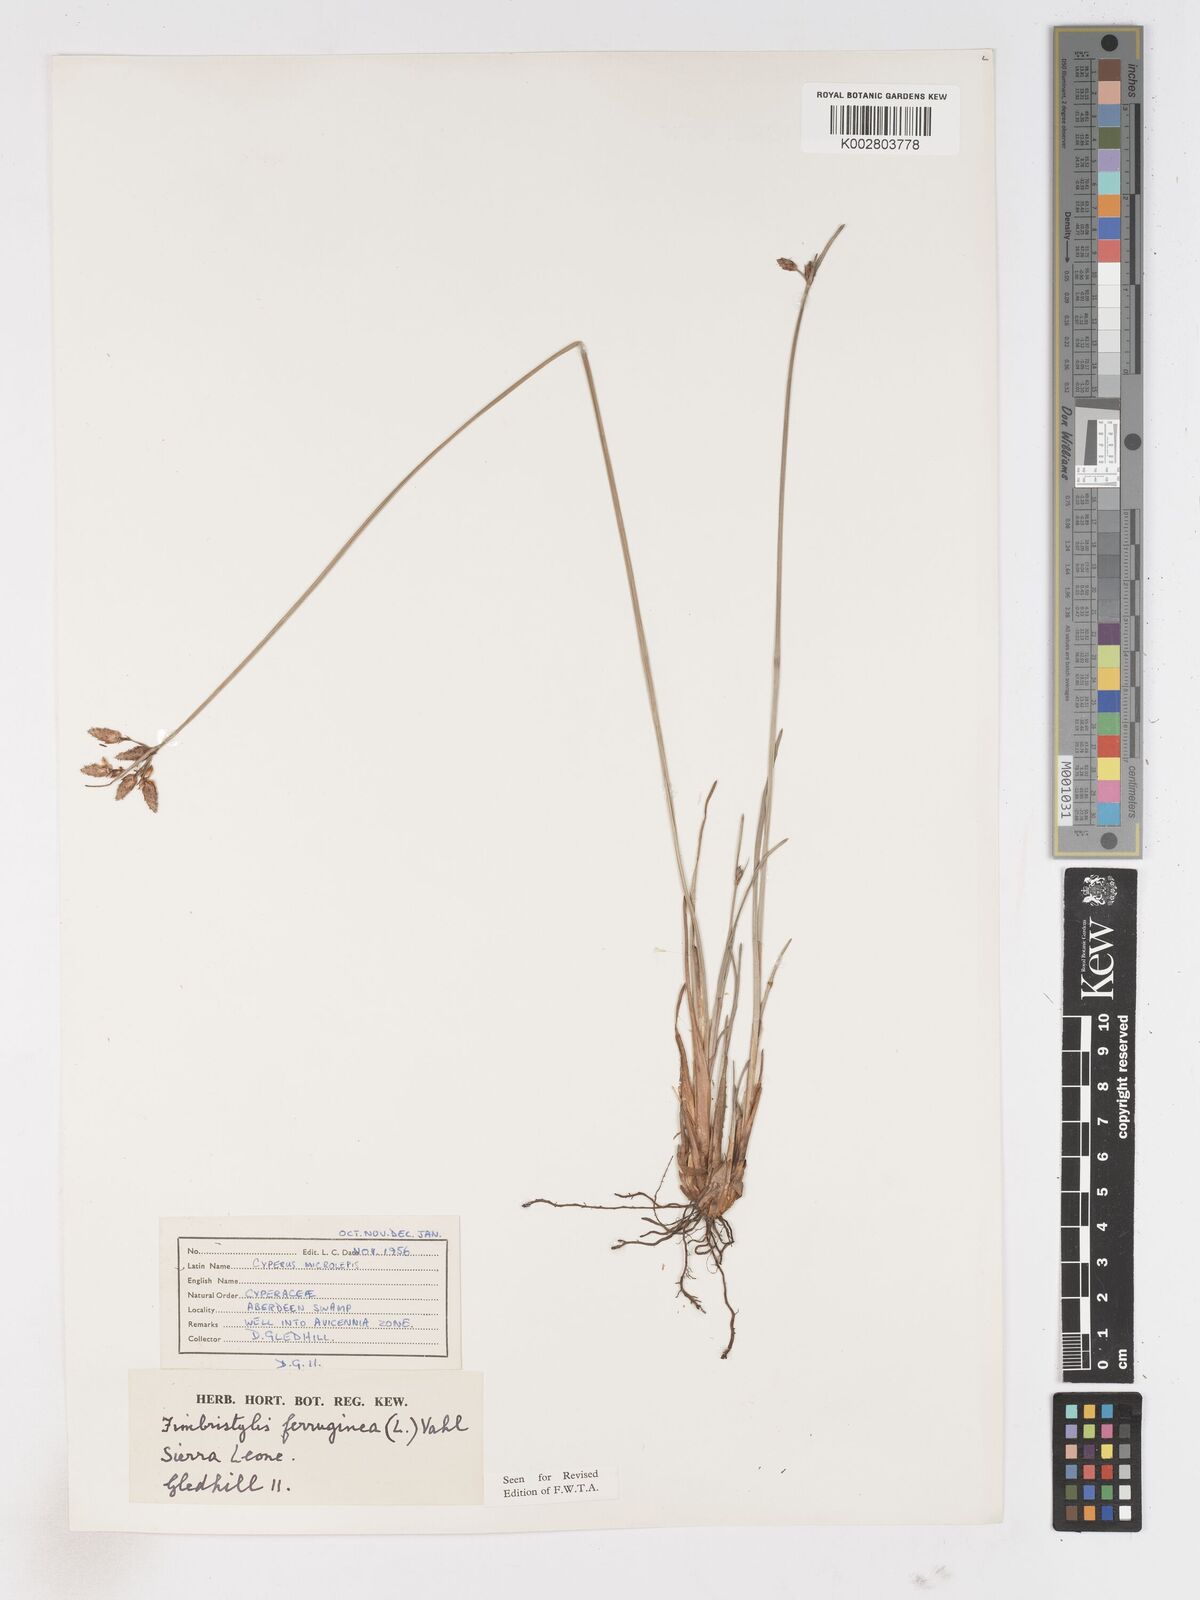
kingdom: Plantae
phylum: Tracheophyta
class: Liliopsida
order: Poales
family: Cyperaceae
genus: Fimbristylis
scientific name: Fimbristylis ferruginea
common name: West indian fimbry
